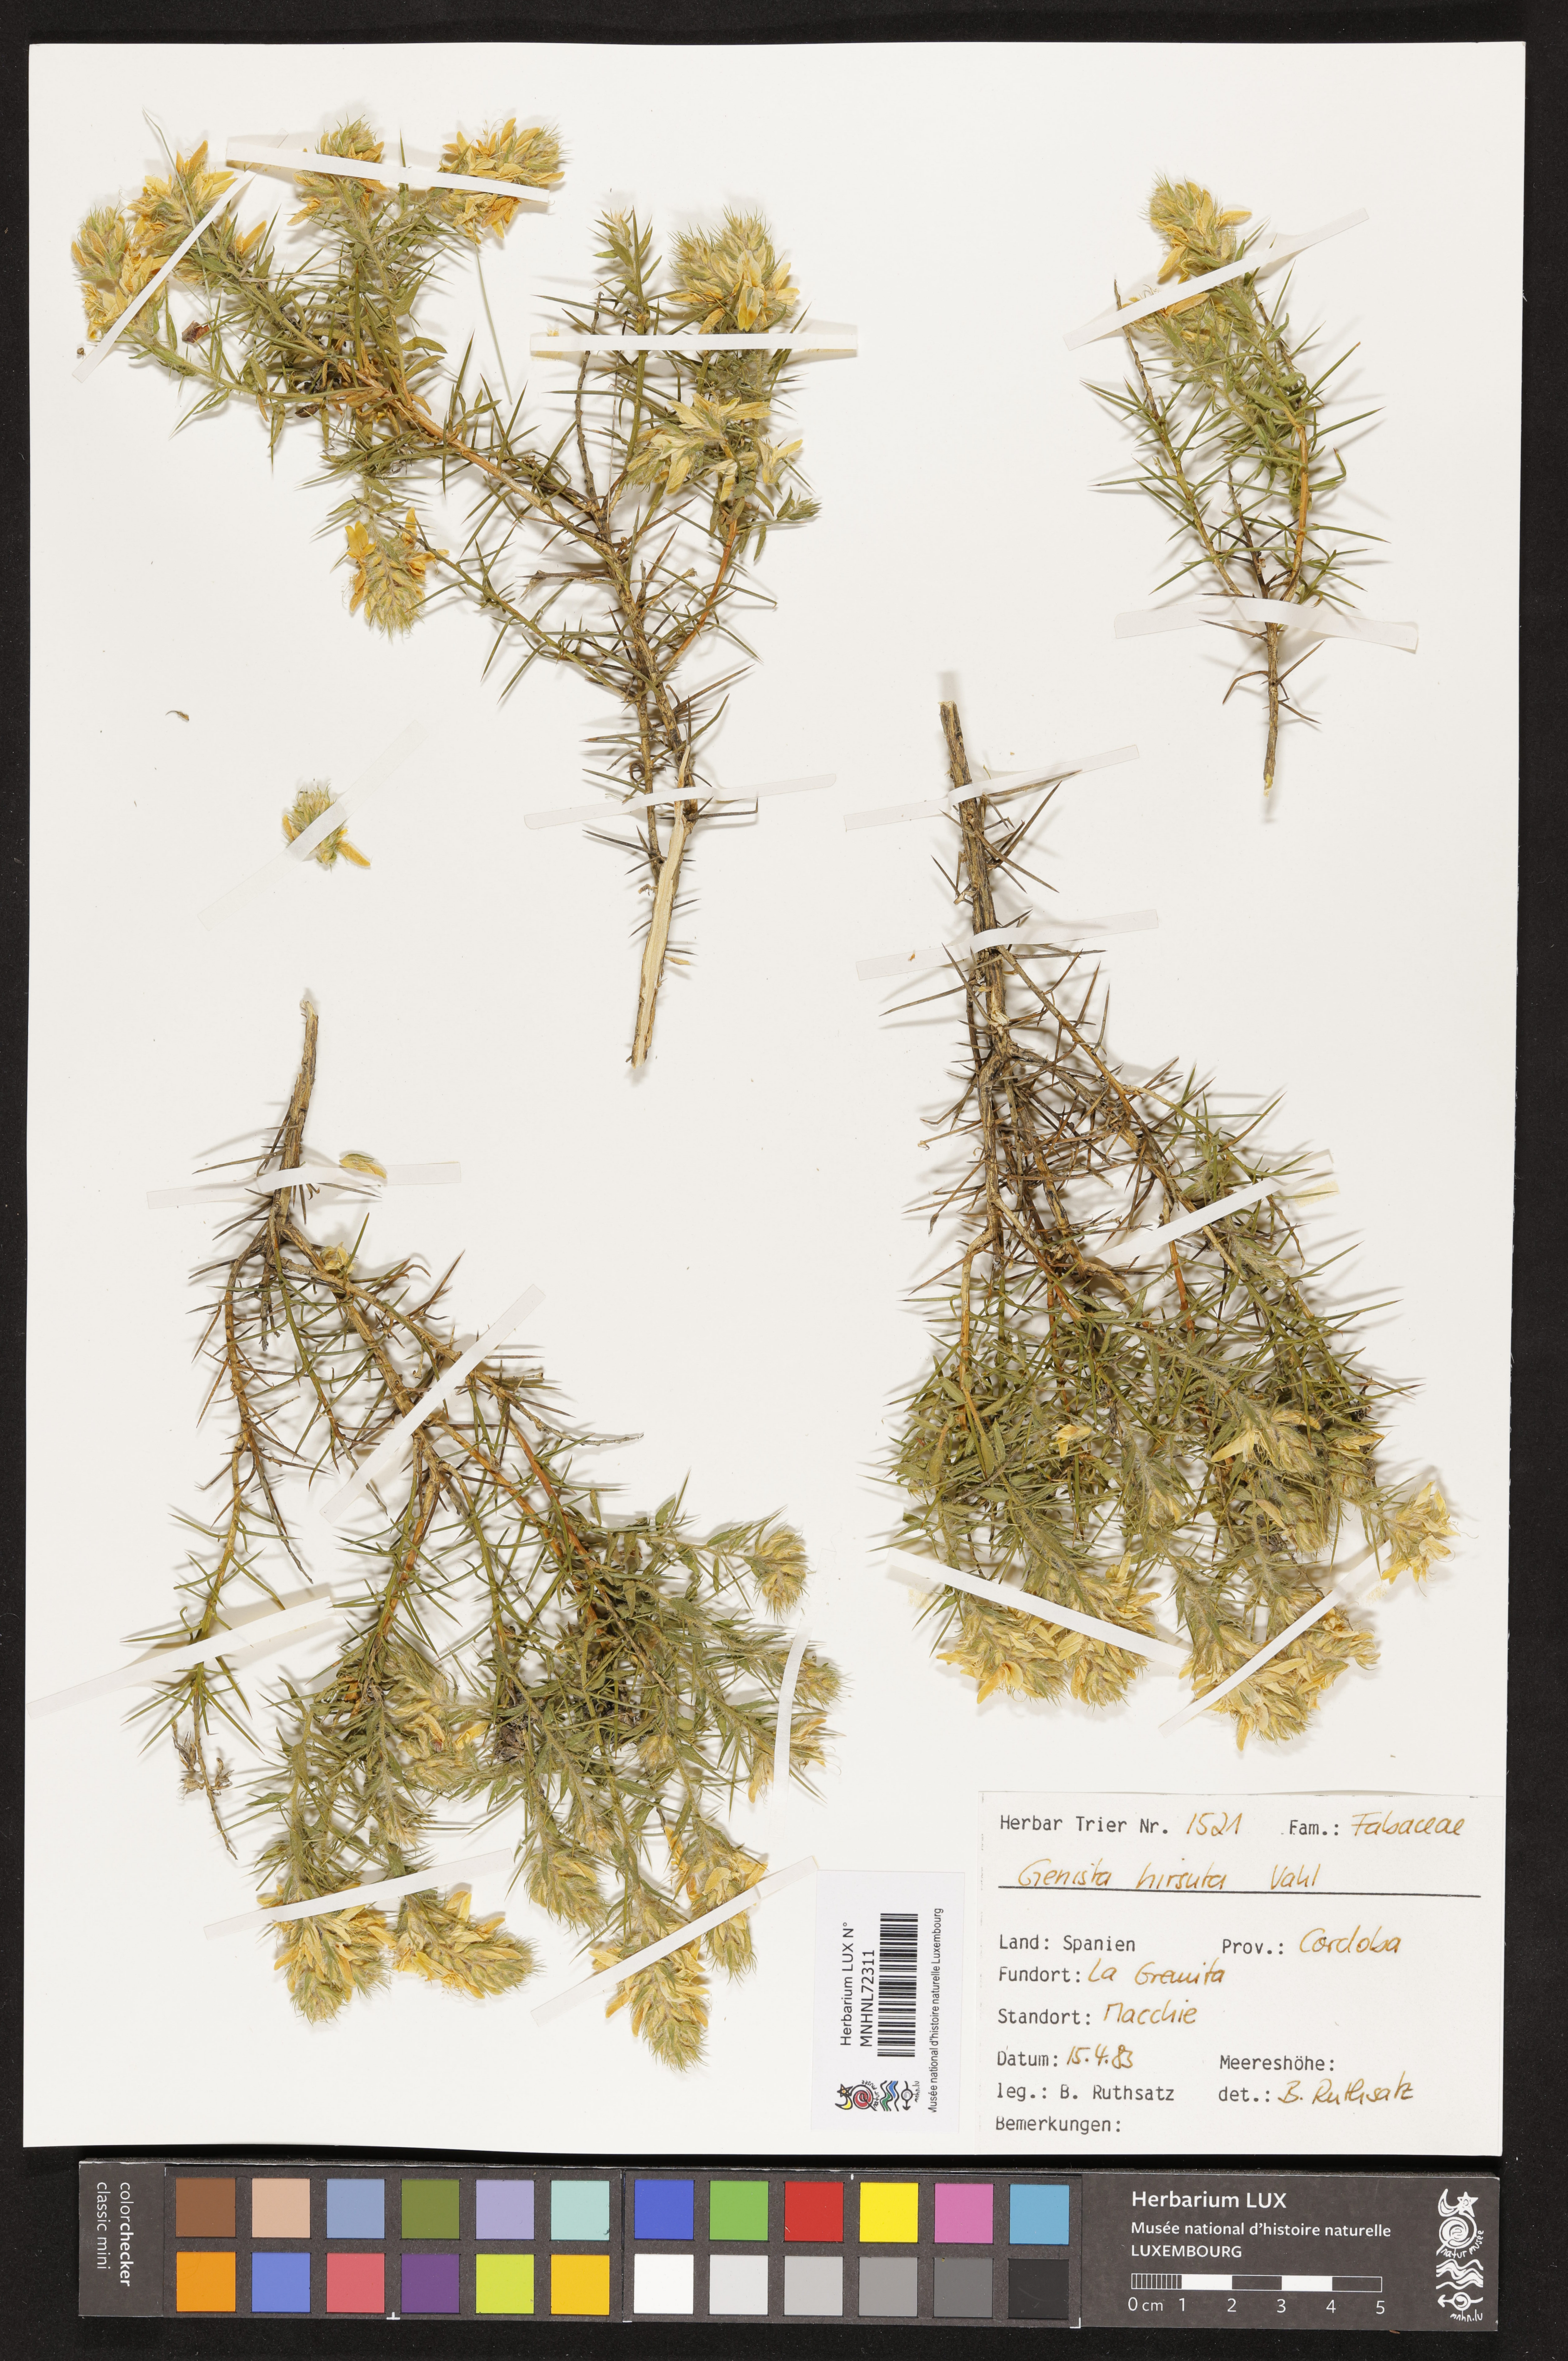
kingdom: Plantae
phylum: Tracheophyta
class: Magnoliopsida
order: Fabales
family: Fabaceae
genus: Genista
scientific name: Genista hirsuta
